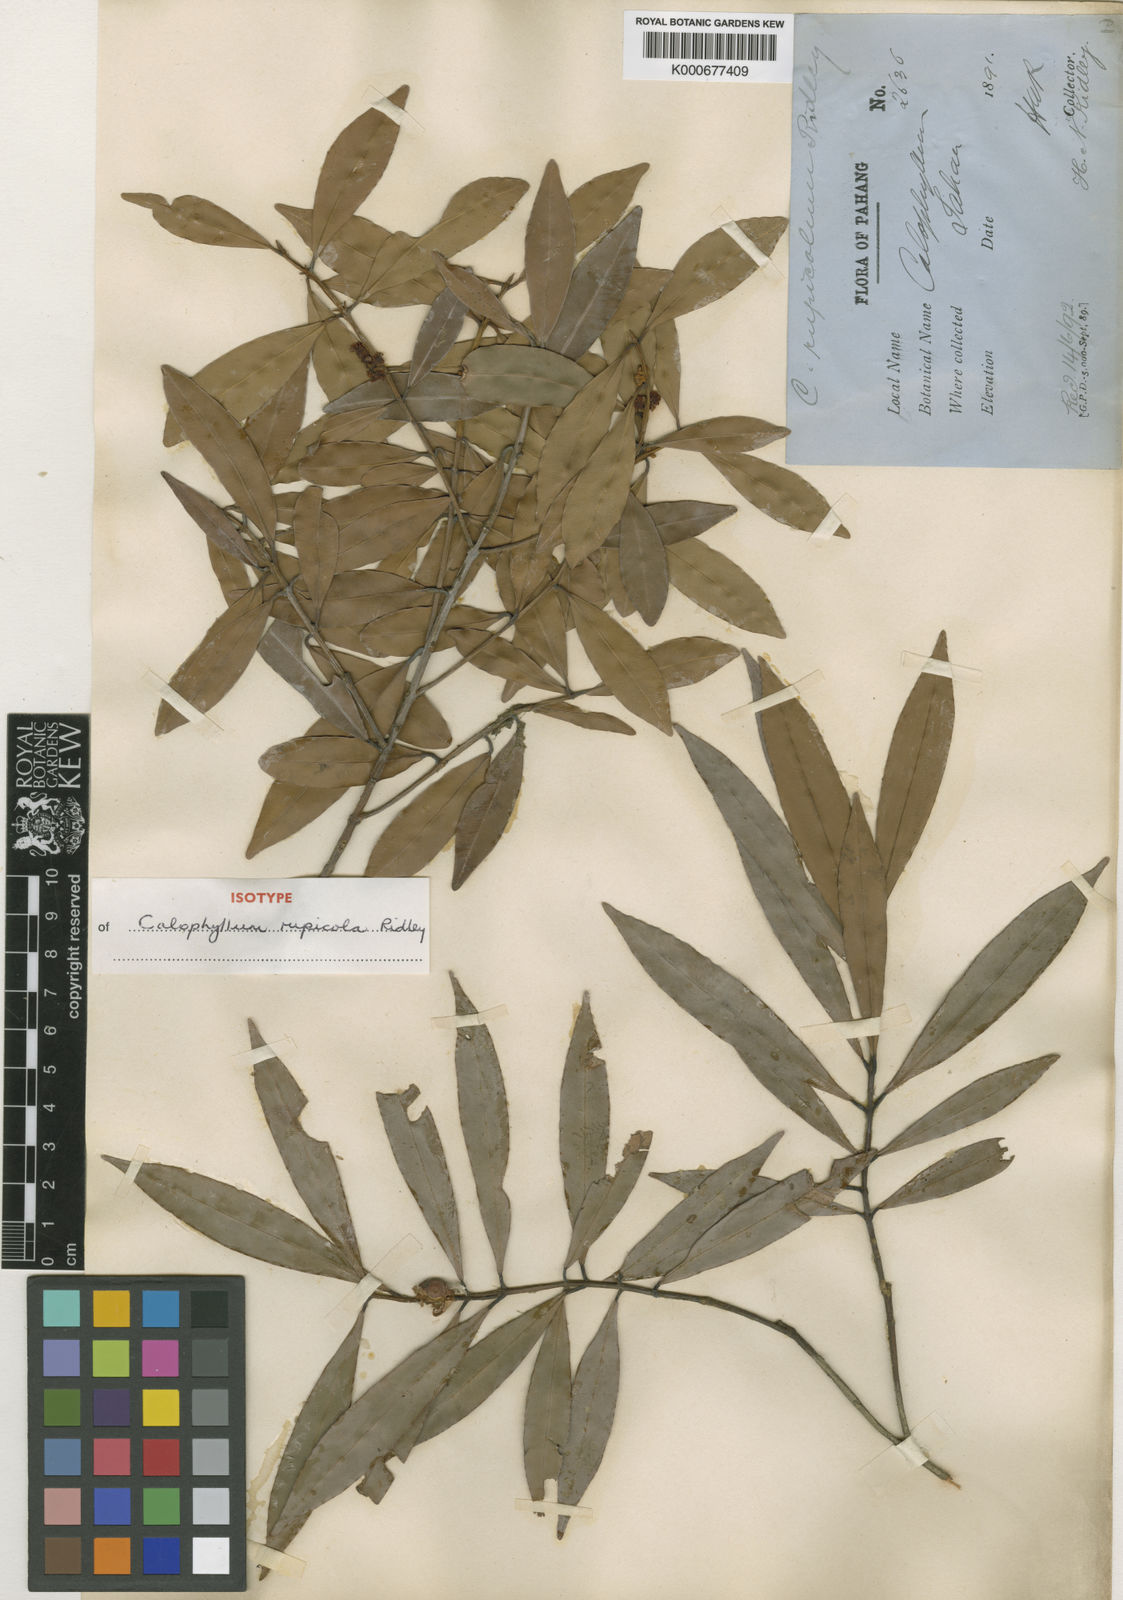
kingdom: Plantae
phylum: Tracheophyta
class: Magnoliopsida
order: Malpighiales
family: Calophyllaceae
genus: Calophyllum
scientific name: Calophyllum rupicola
